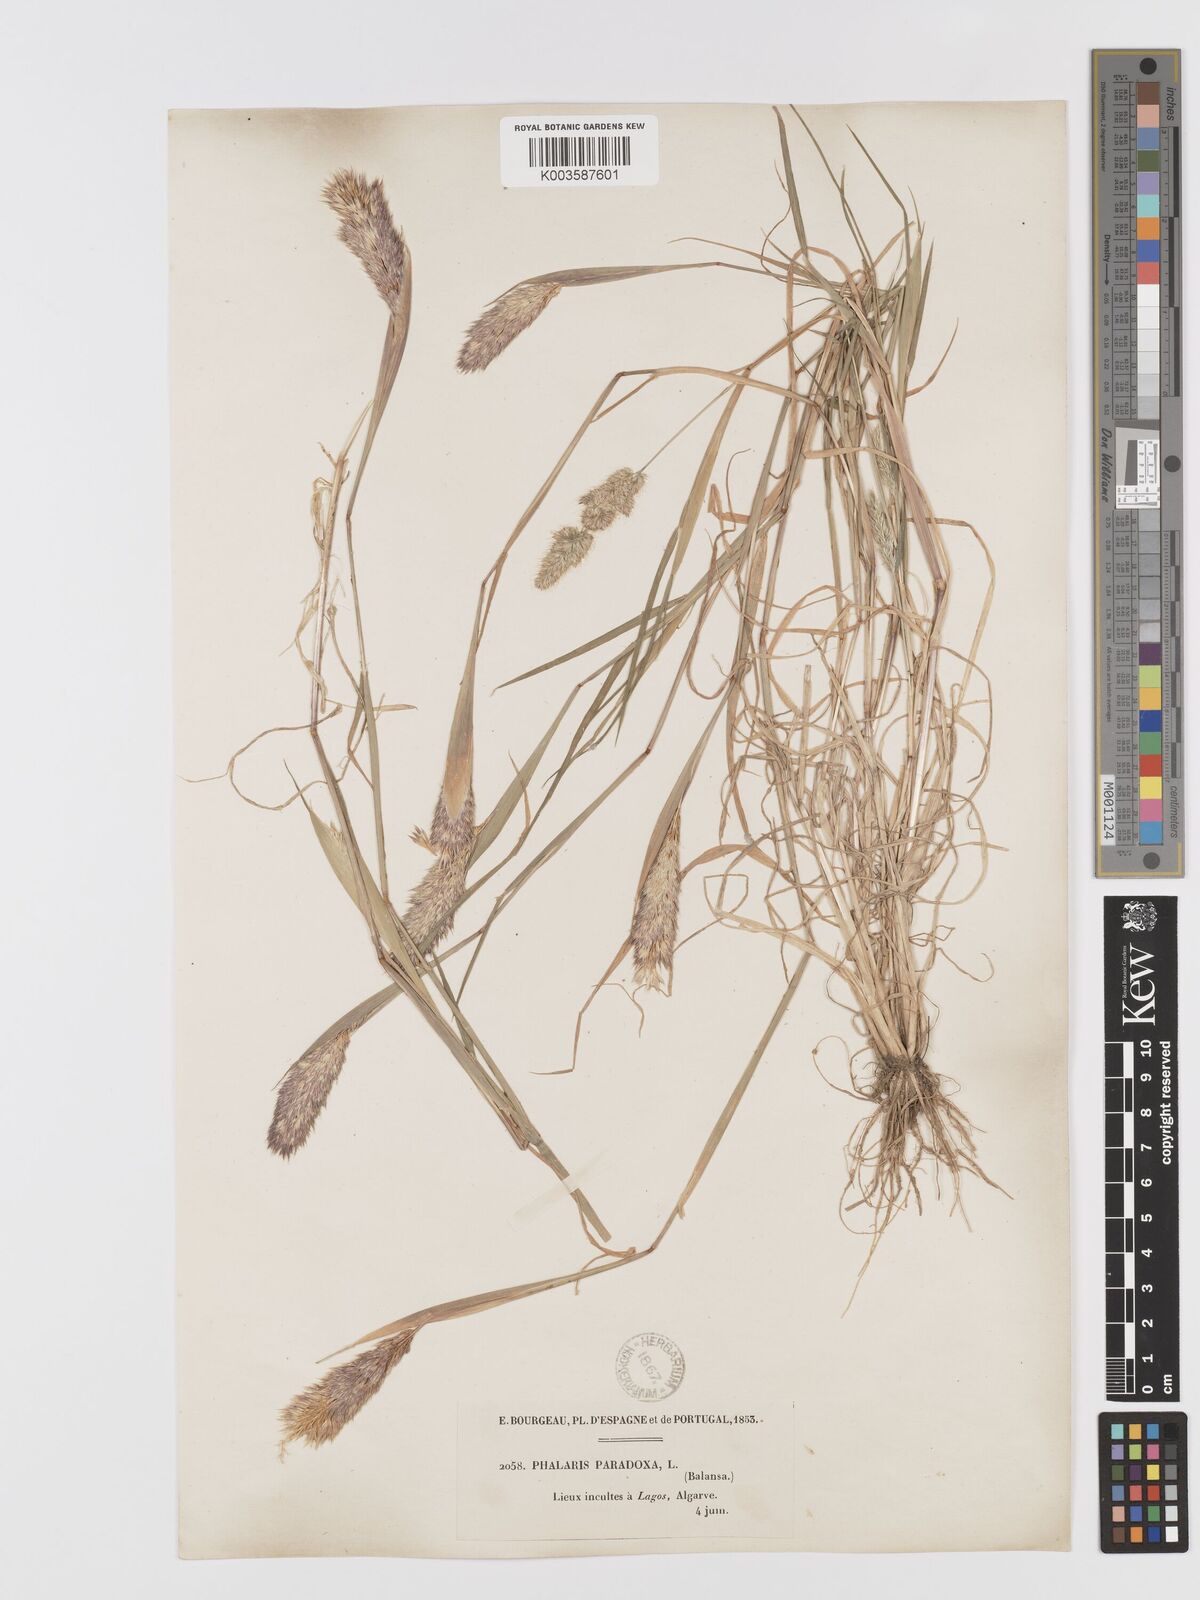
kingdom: Plantae
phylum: Tracheophyta
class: Liliopsida
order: Poales
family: Poaceae
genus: Phalaris
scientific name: Phalaris paradoxa
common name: Awned canary-grass
